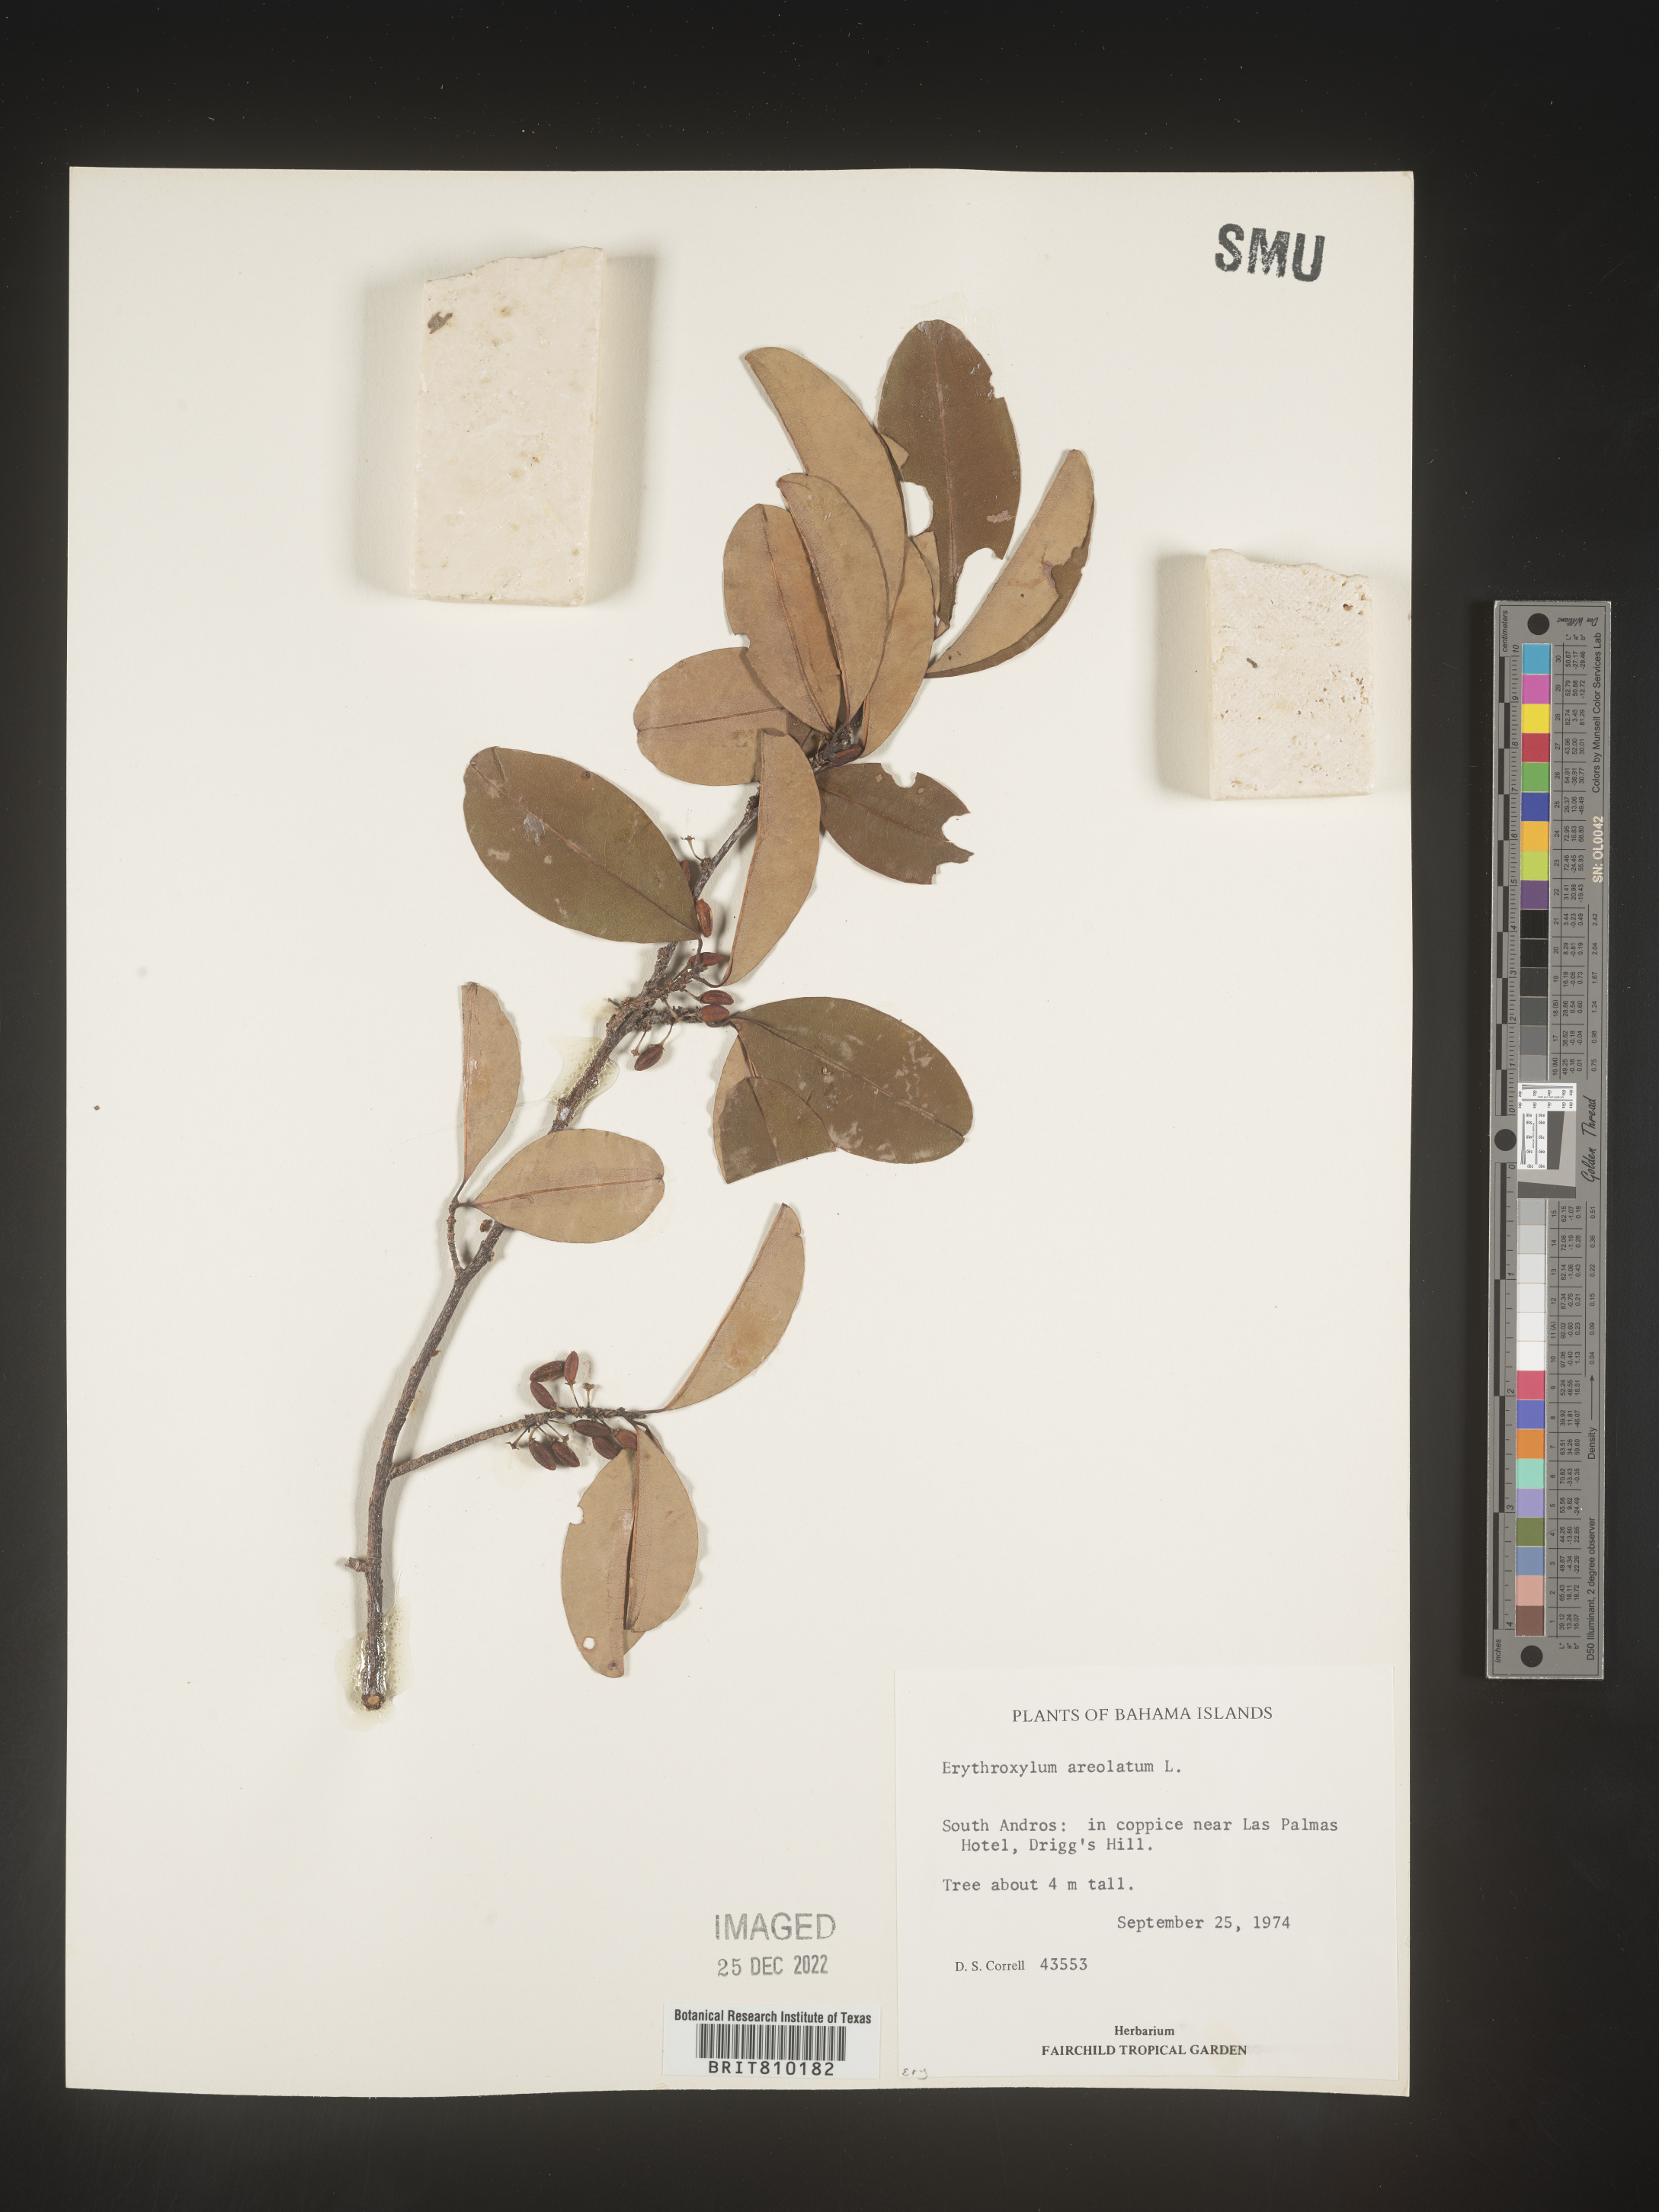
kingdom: Plantae
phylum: Tracheophyta
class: Magnoliopsida
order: Malpighiales
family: Erythroxylaceae
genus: Erythroxylum
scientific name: Erythroxylum
